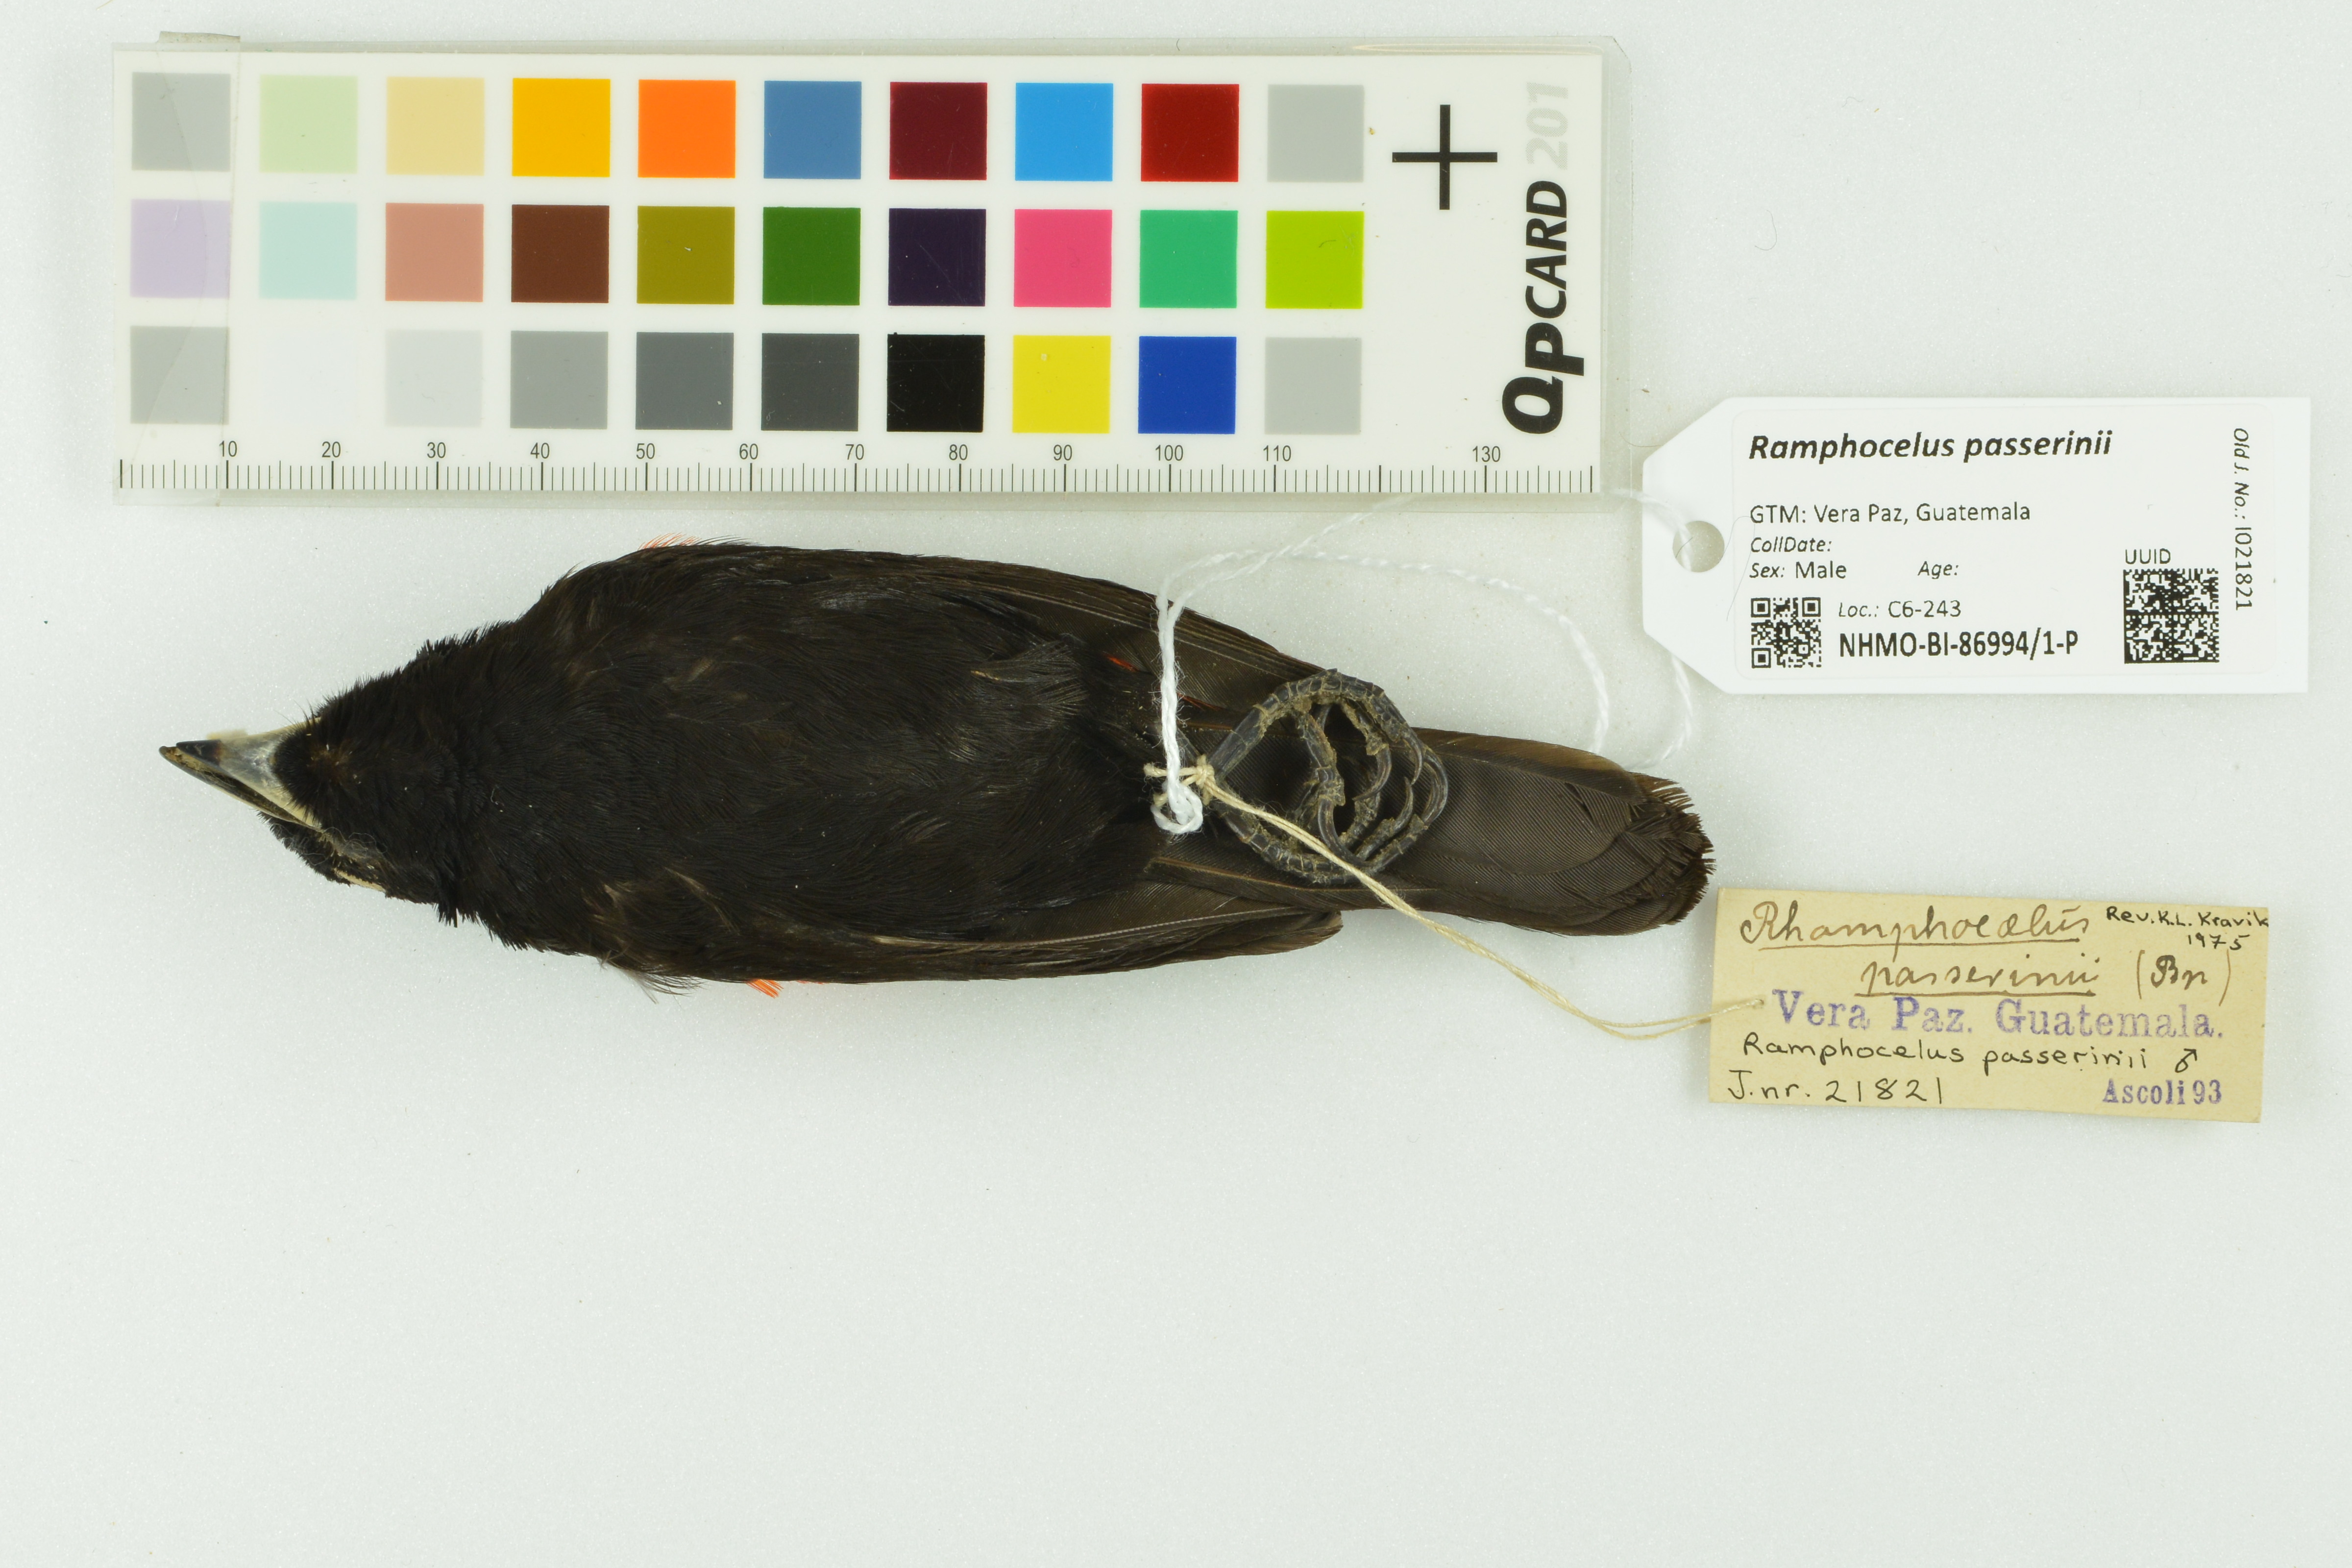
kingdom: Animalia
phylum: Chordata
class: Aves
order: Passeriformes
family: Thraupidae
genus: Ramphocelus
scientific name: Ramphocelus passerinii
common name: Passerini's tanager
